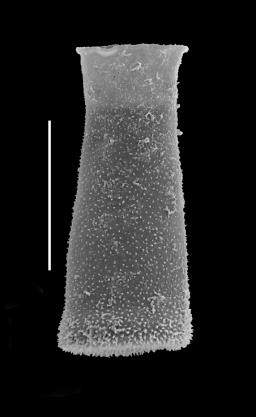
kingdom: Protozoa
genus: Belonechitina
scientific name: Belonechitina
